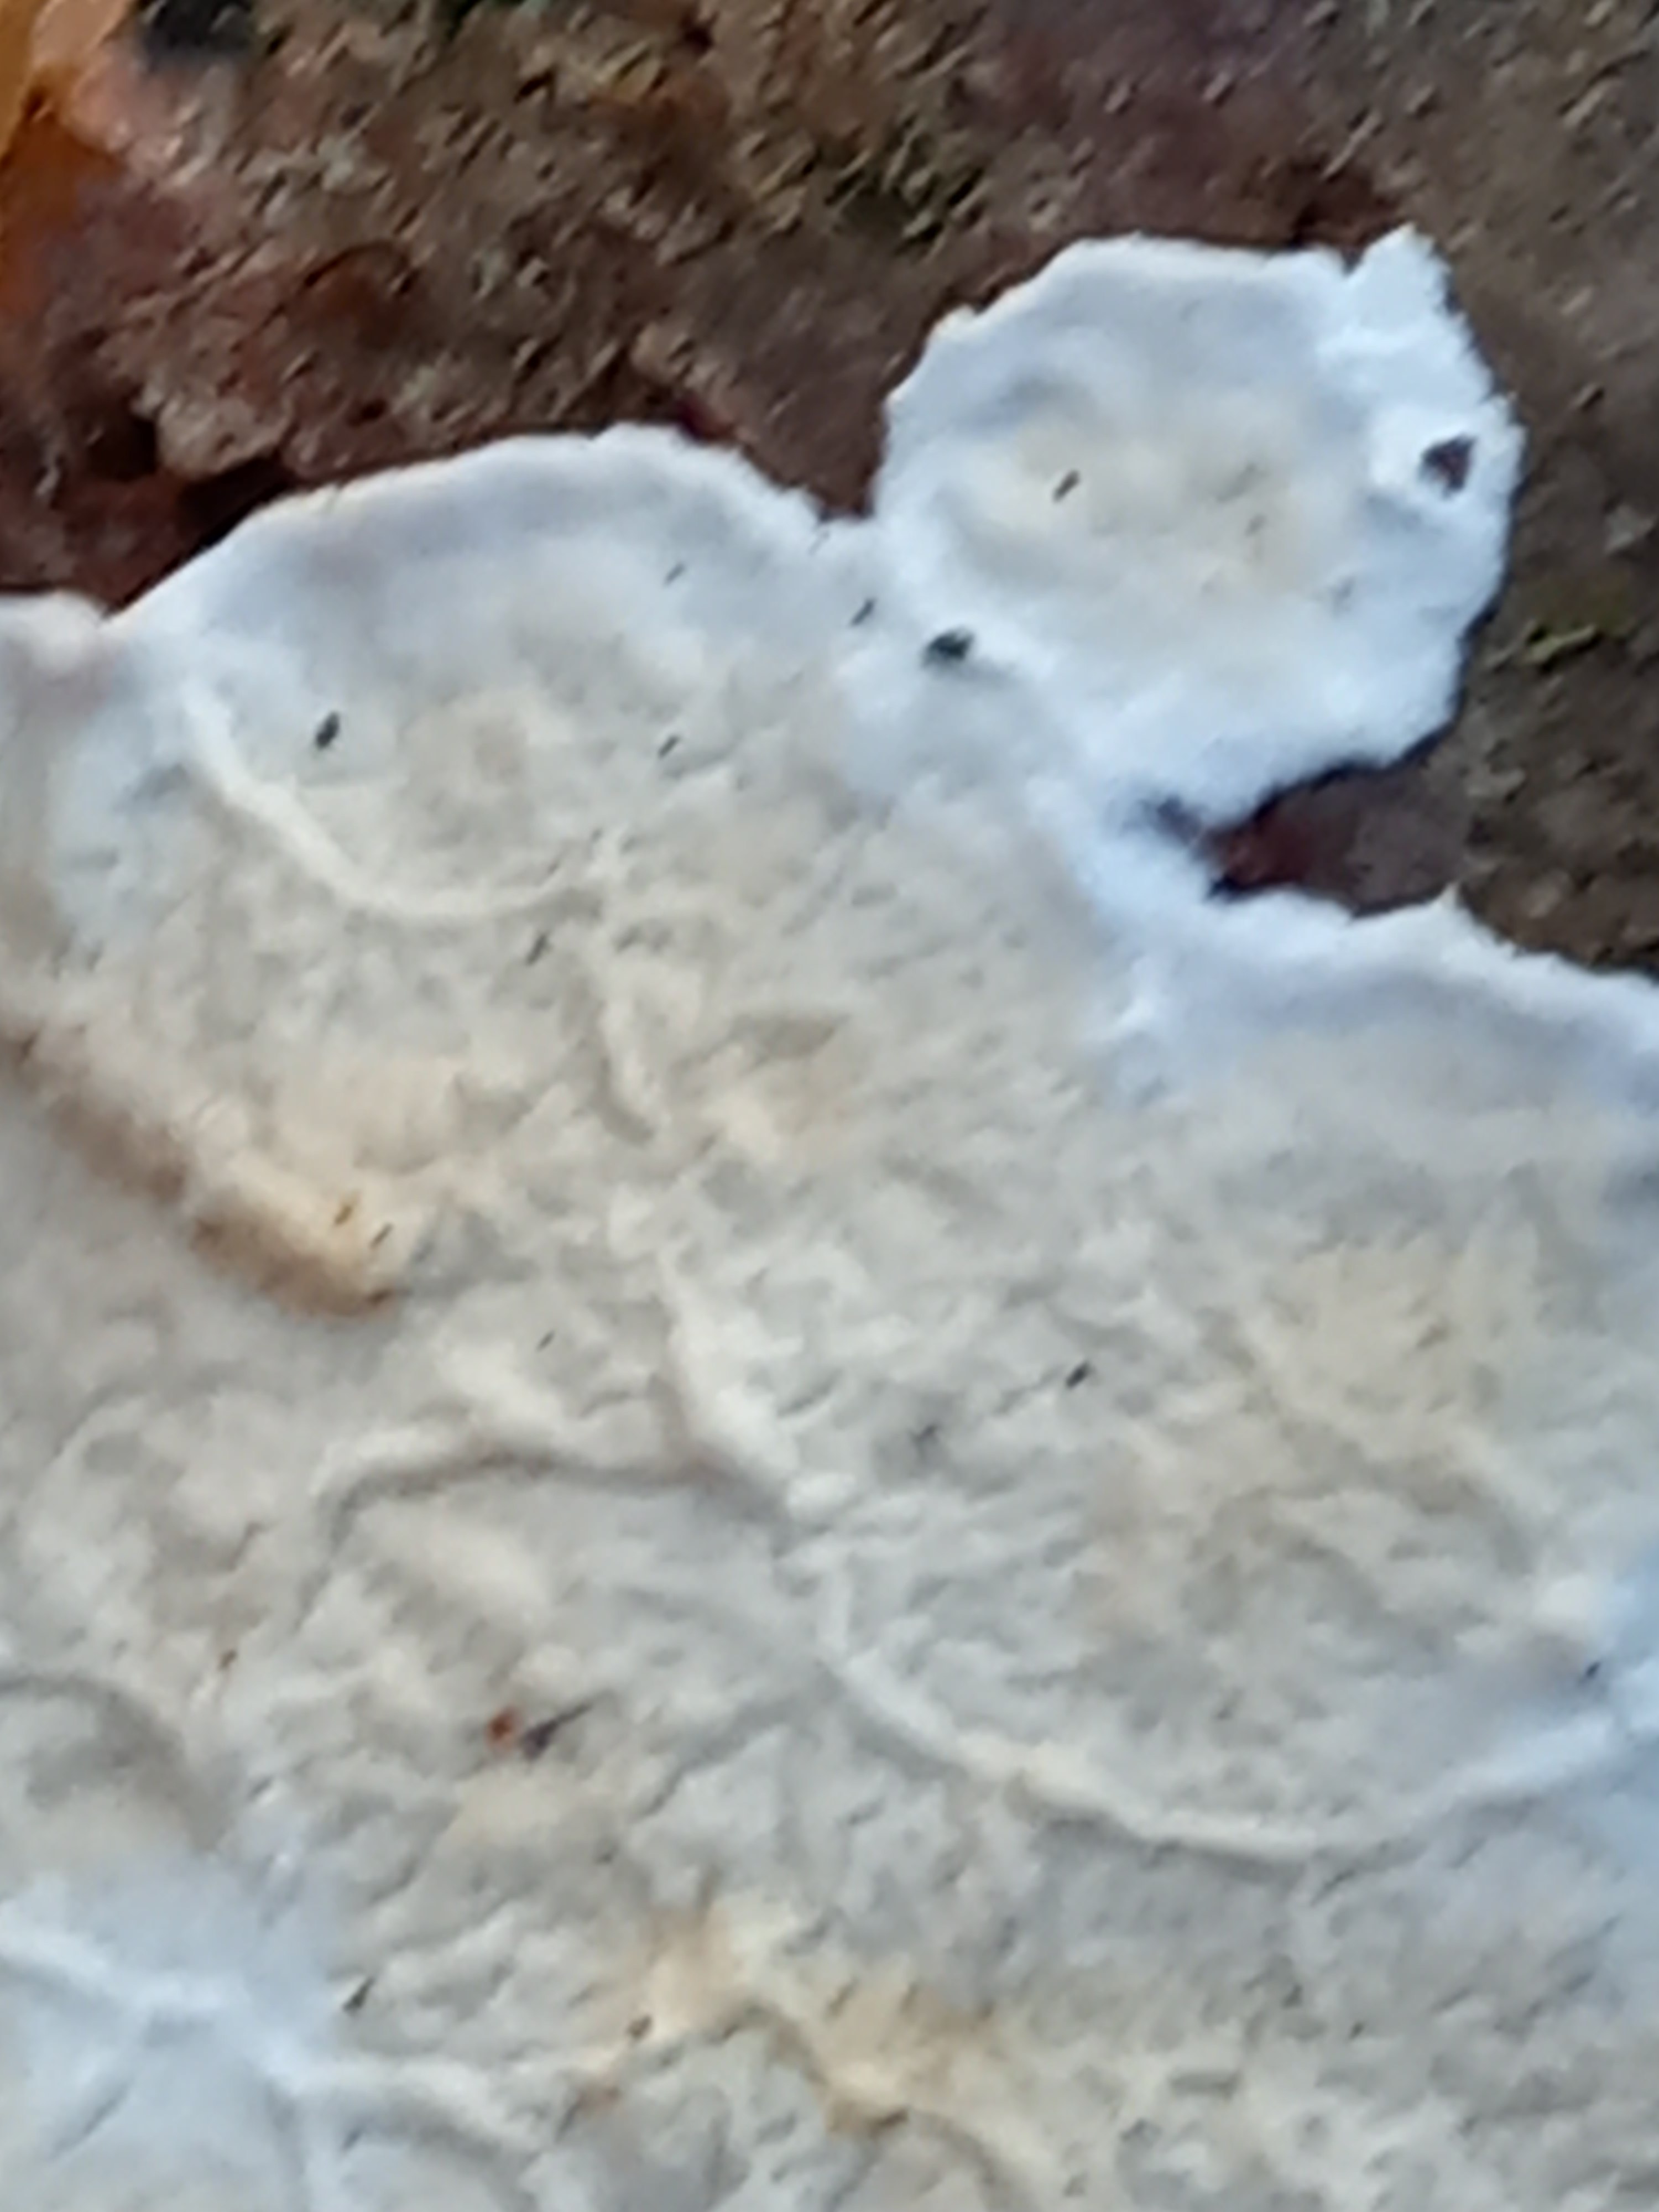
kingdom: Fungi
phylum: Basidiomycota
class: Agaricomycetes
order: Polyporales
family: Irpicaceae
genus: Byssomerulius
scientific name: Byssomerulius corium
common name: læder-åresvamp
